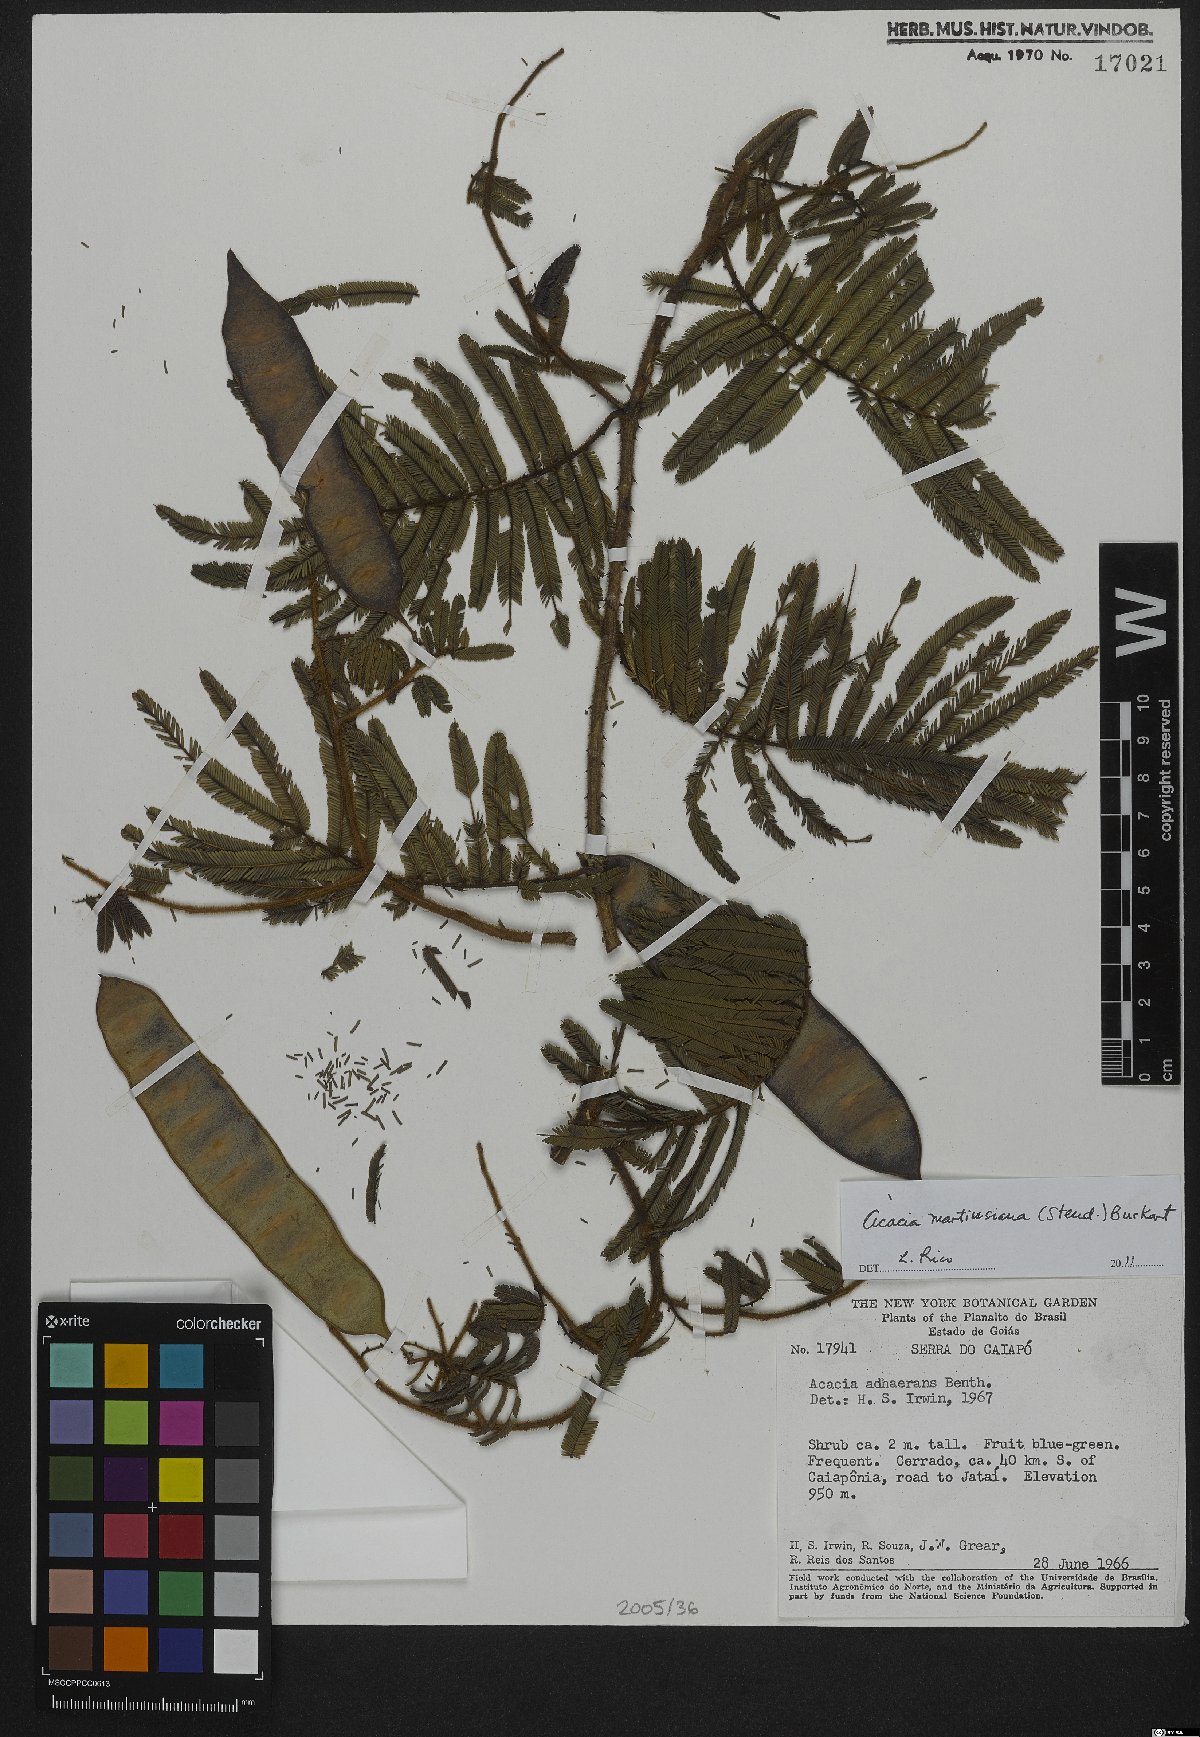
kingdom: Plantae
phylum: Tracheophyta
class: Magnoliopsida
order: Fabales
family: Fabaceae
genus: Senegalia
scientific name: Senegalia martiusiana
